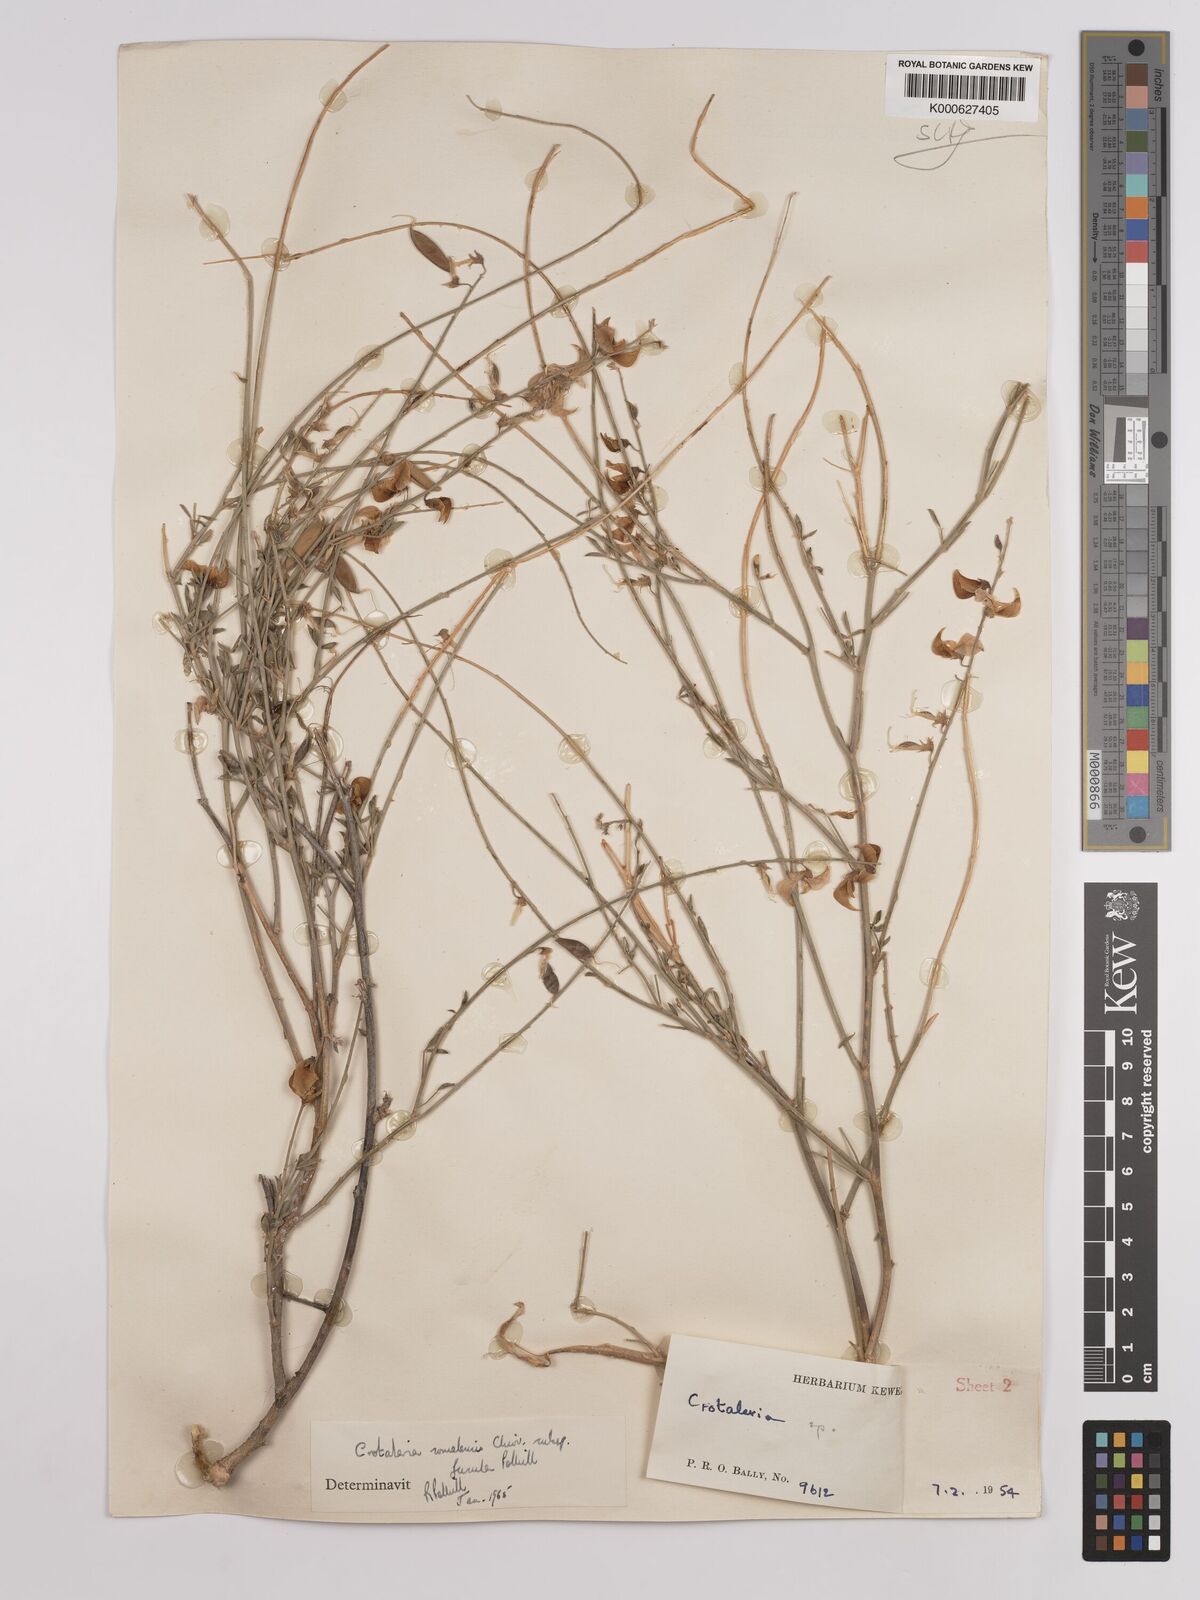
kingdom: Plantae
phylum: Tracheophyta
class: Magnoliopsida
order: Fabales
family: Fabaceae
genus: Crotalaria
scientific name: Crotalaria
